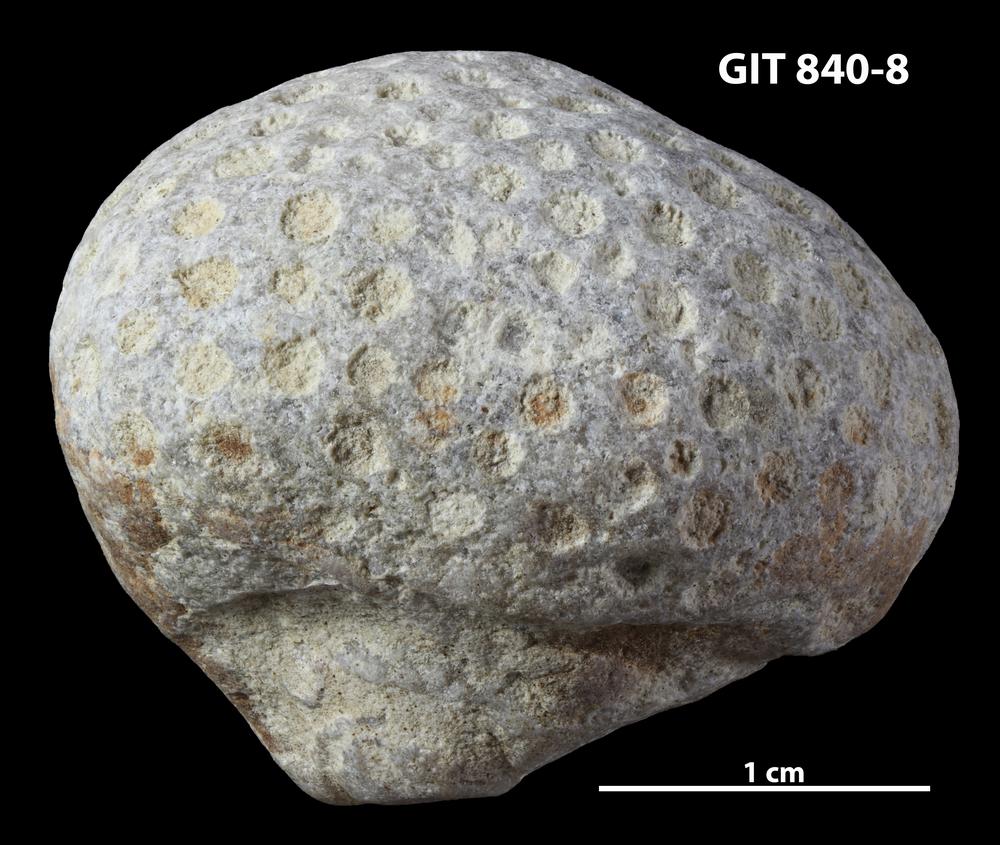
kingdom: Animalia
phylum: Cnidaria
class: Anthozoa
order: Heliolitina
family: Heliolitidae
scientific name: Heliolitidae
